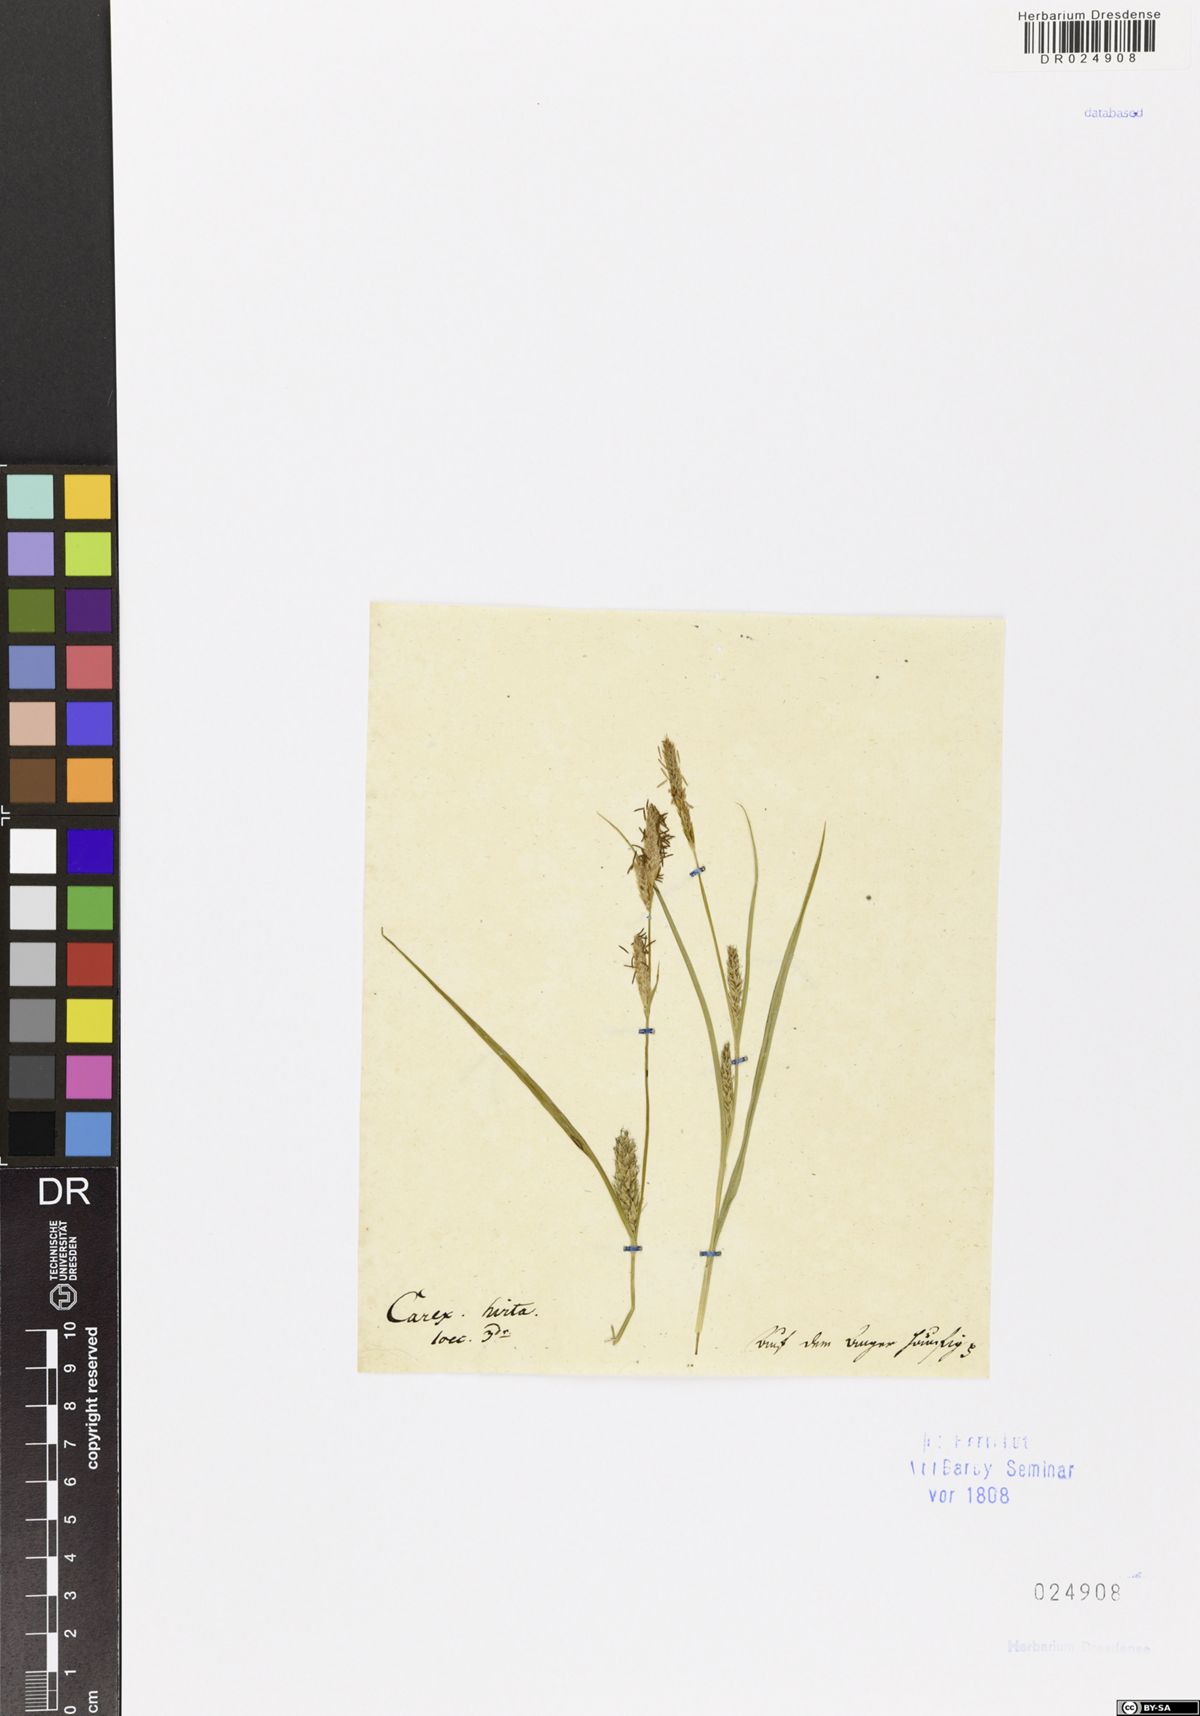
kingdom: Plantae
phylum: Tracheophyta
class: Liliopsida
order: Poales
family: Cyperaceae
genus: Carex
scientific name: Carex hirta
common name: Hairy sedge
